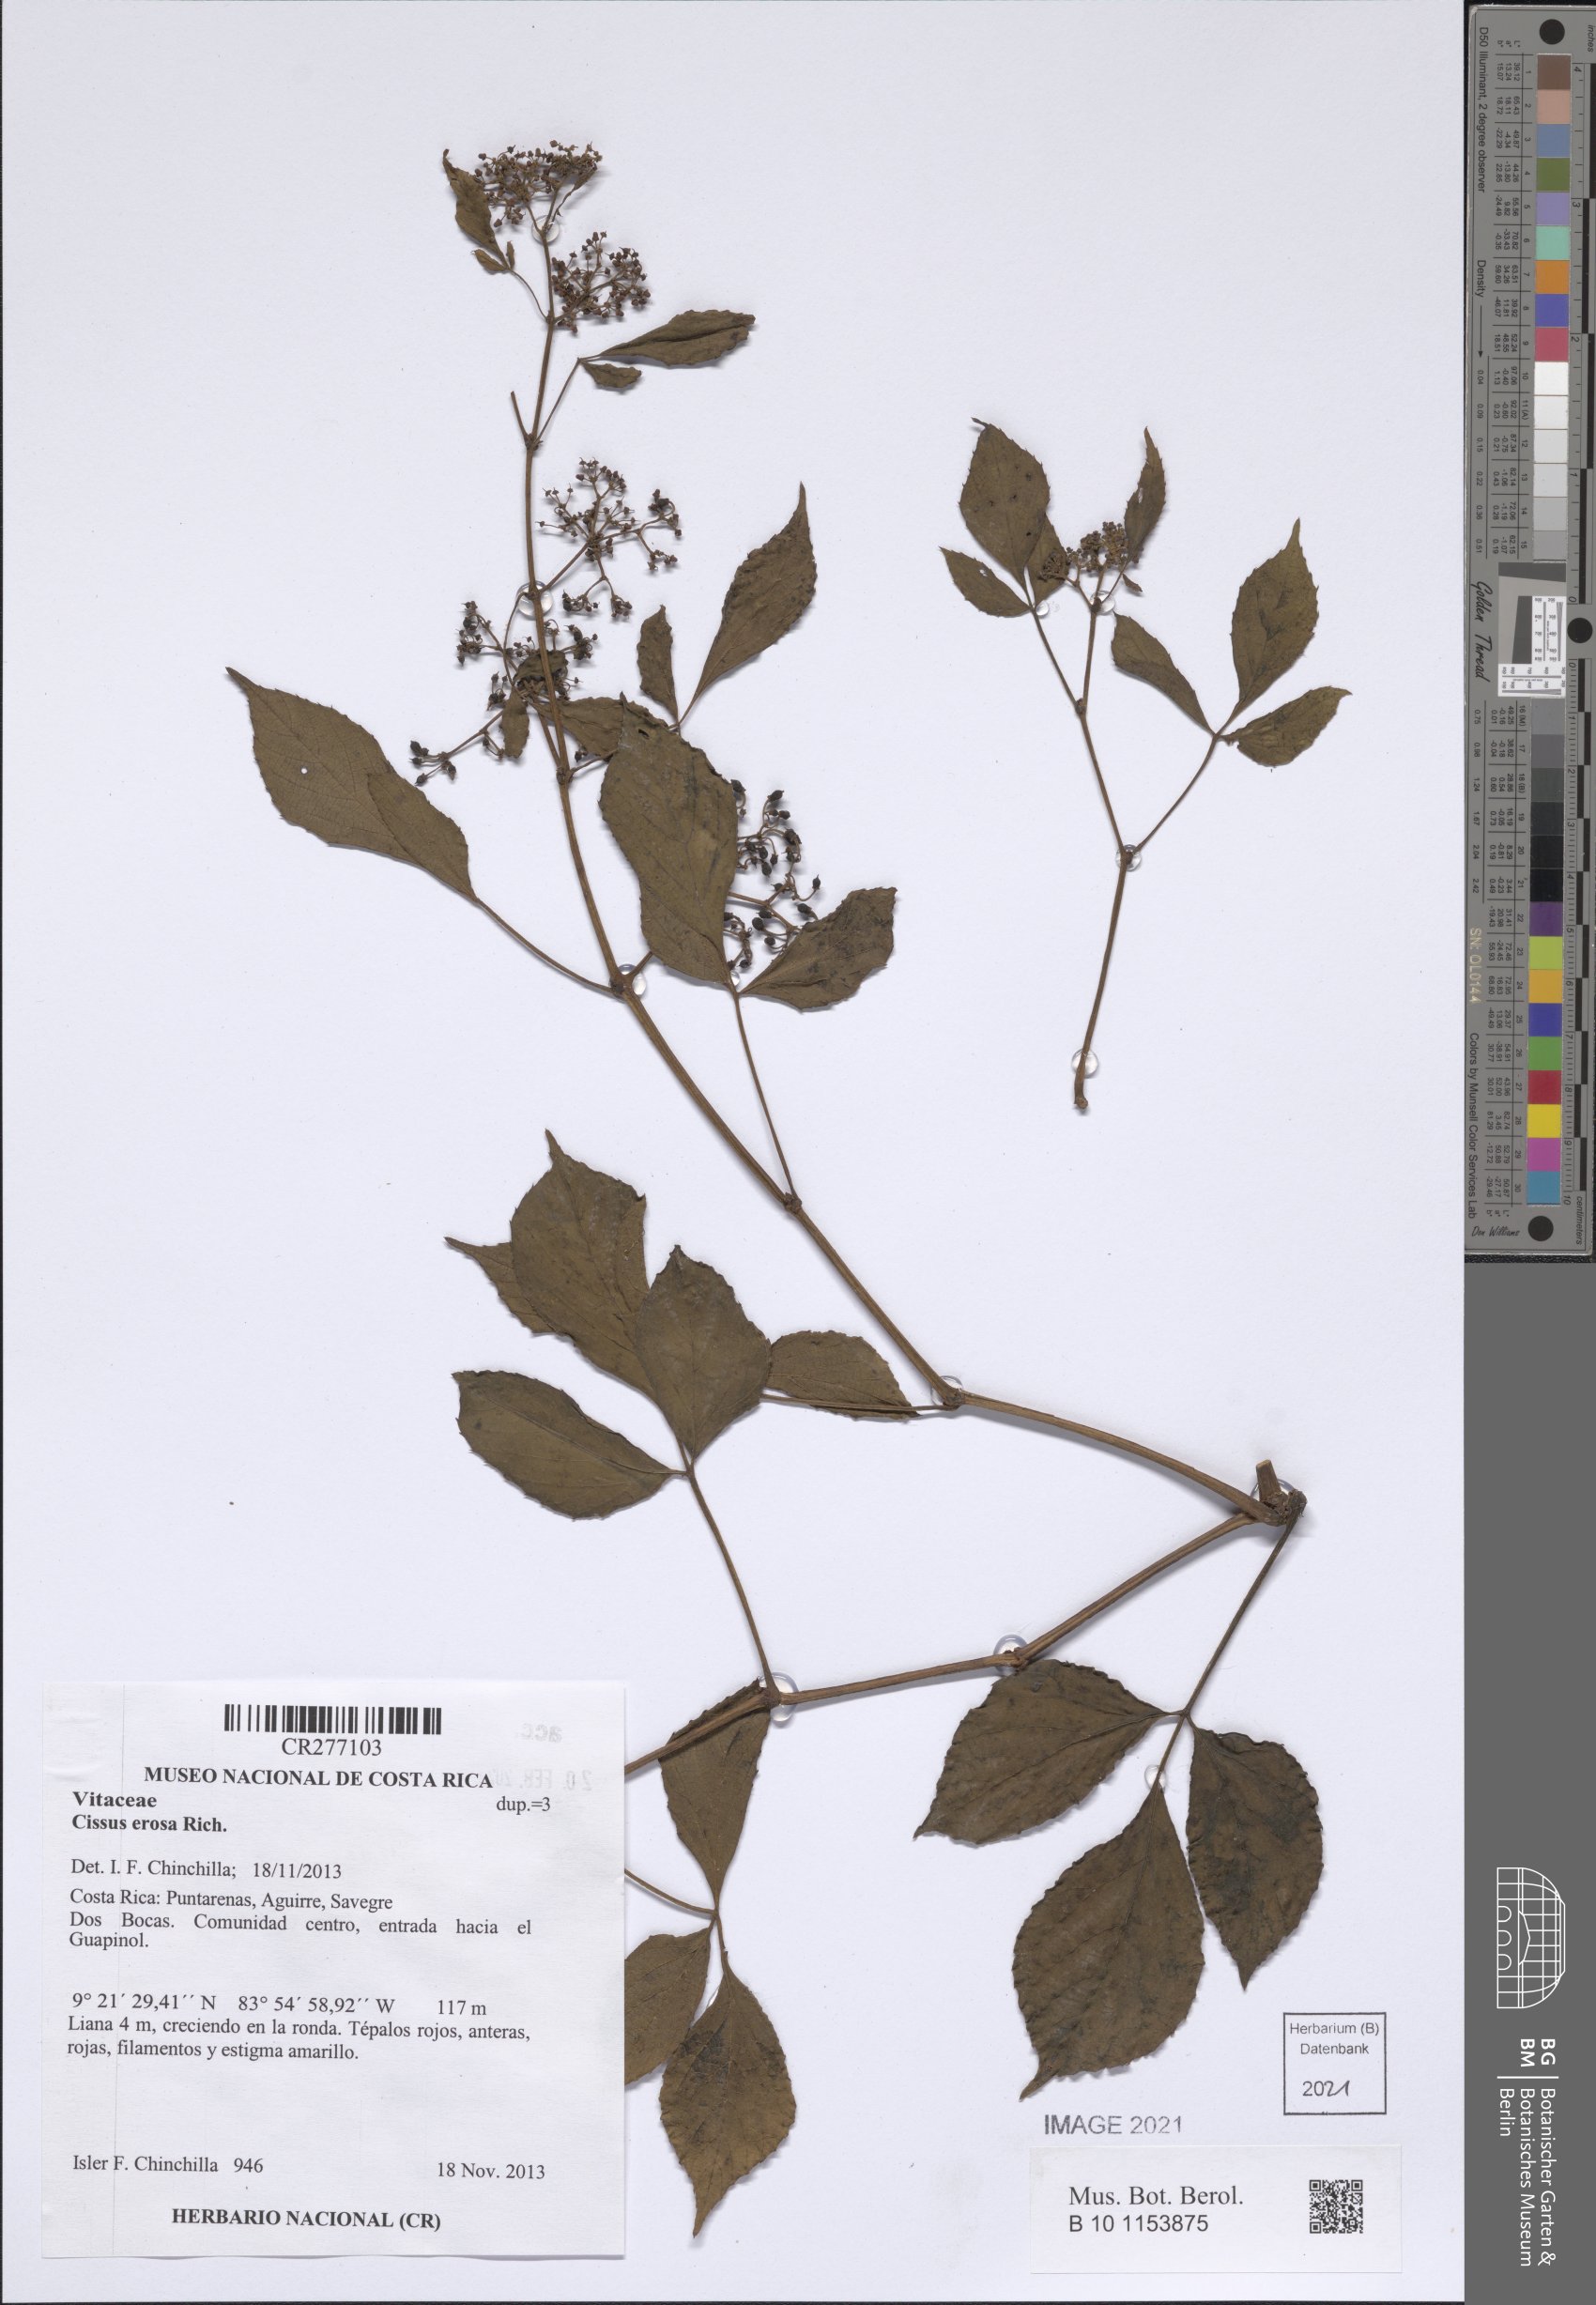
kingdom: Plantae
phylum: Tracheophyta
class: Magnoliopsida
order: Vitales
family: Vitaceae
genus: Cissus
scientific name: Cissus erosa
